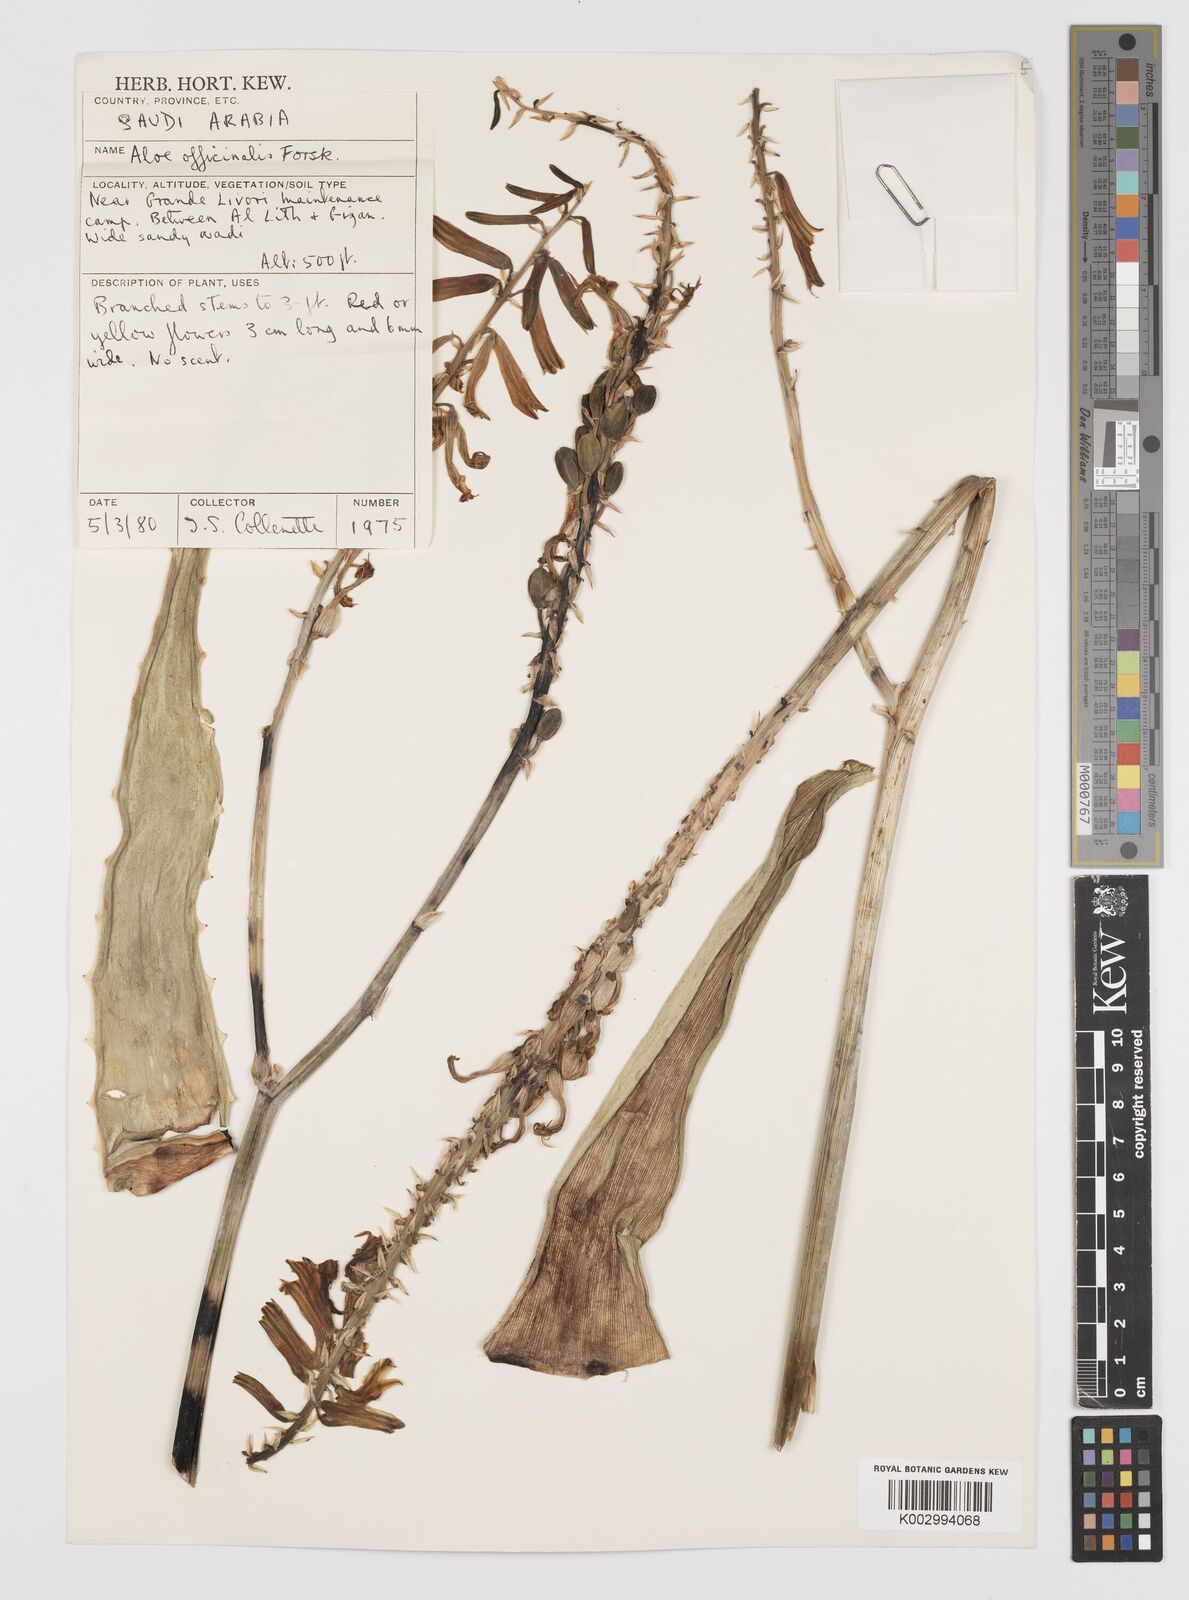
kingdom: Plantae
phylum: Tracheophyta
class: Liliopsida
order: Asparagales
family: Asphodelaceae
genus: Aloe
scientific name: Aloe officinalis
